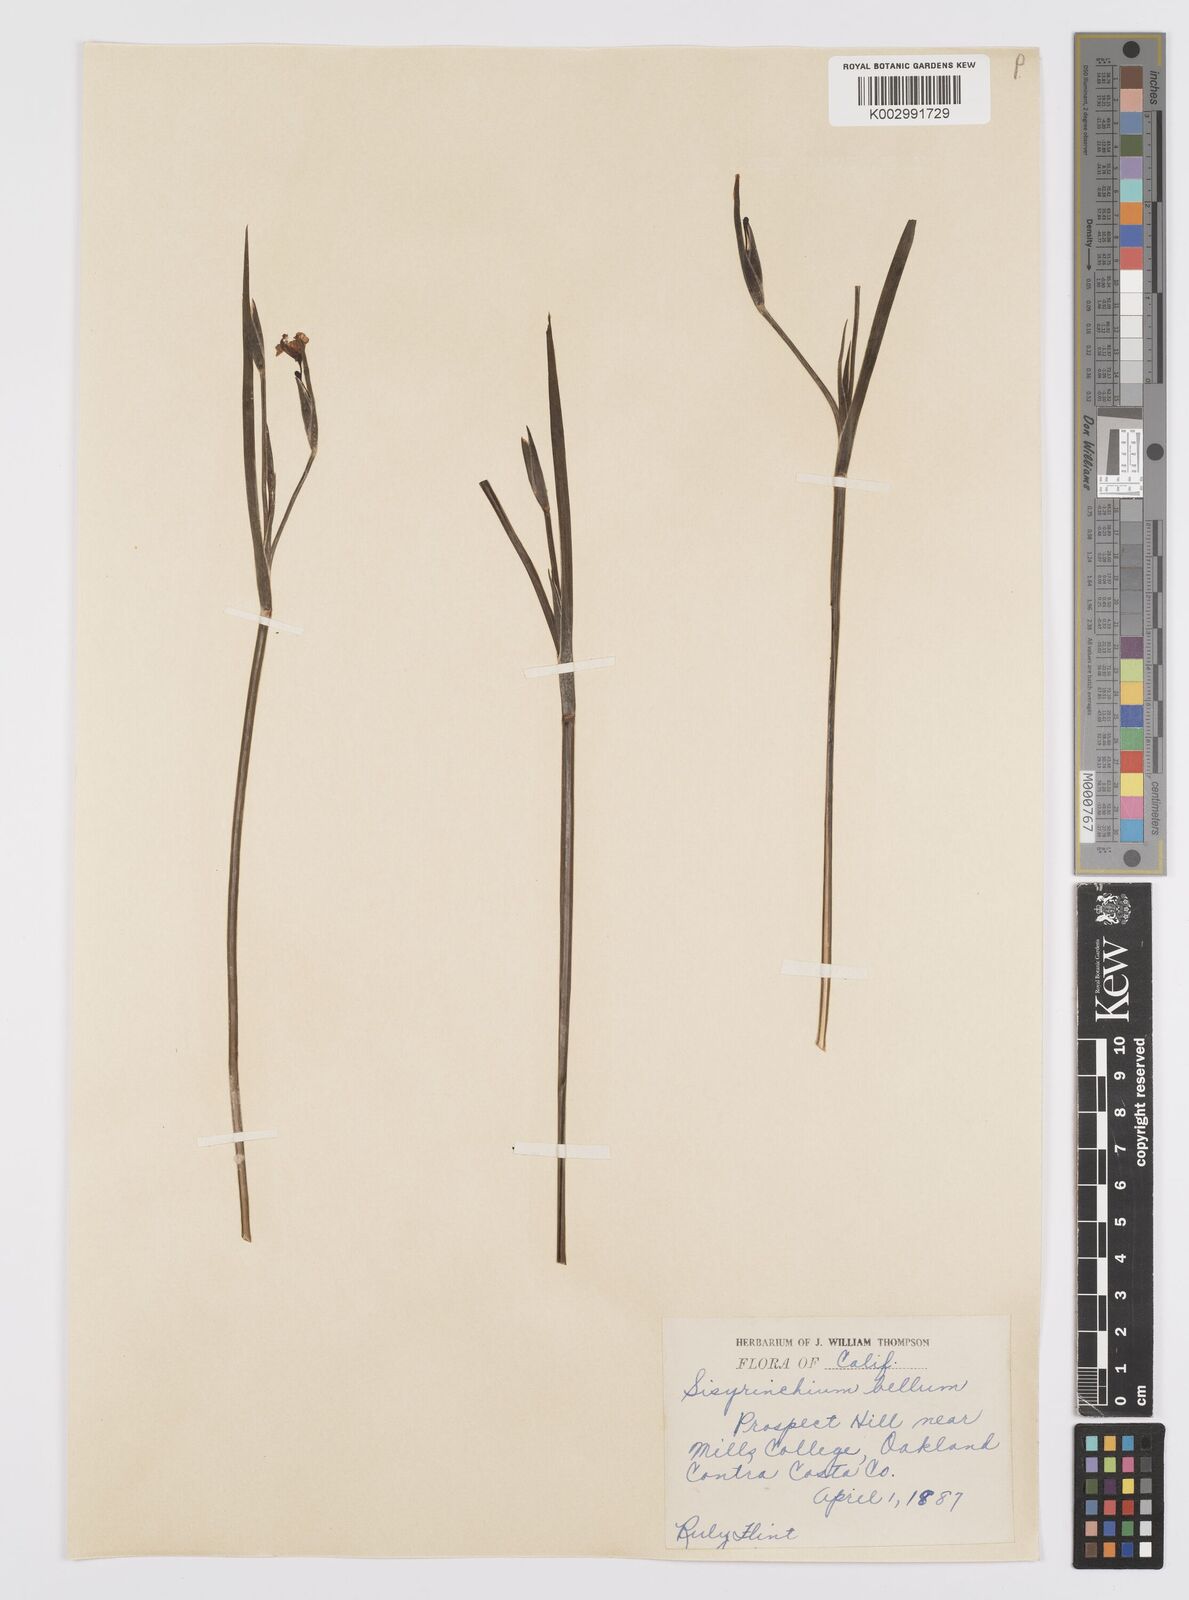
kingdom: Plantae
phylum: Tracheophyta
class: Liliopsida
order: Asparagales
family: Iridaceae
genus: Sisyrinchium
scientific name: Sisyrinchium bellum
